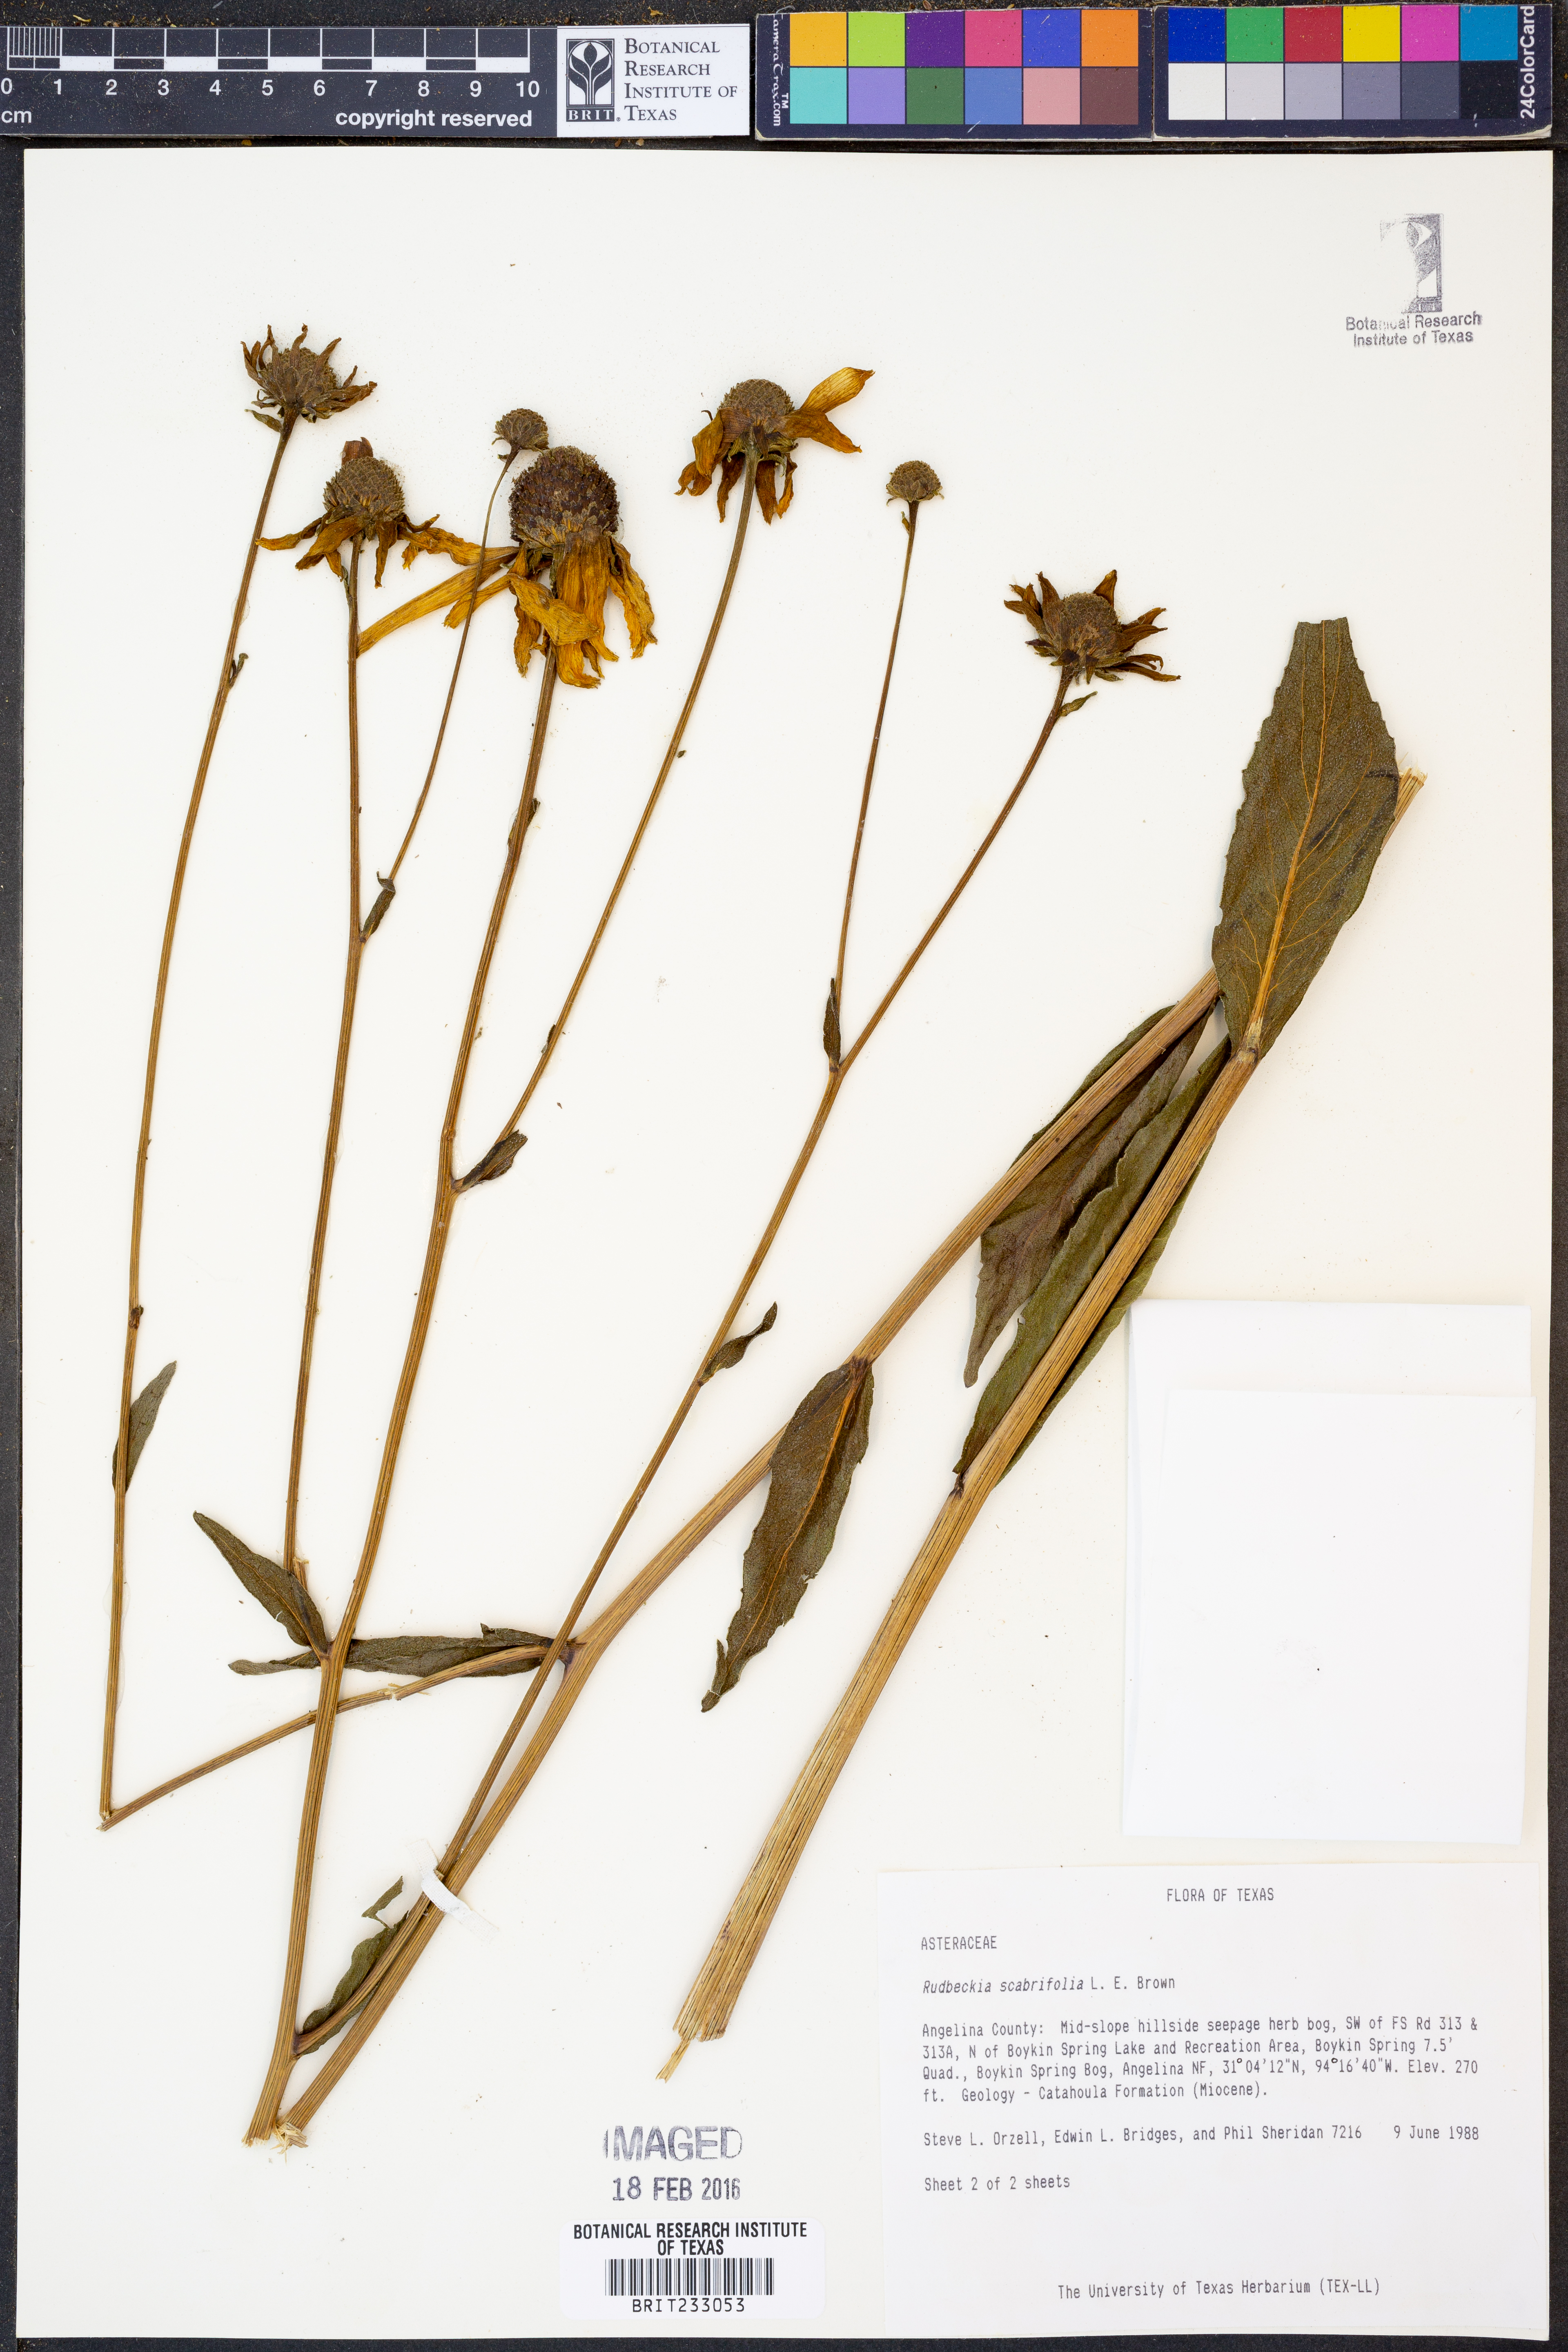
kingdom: Plantae
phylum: Tracheophyta
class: Magnoliopsida
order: Asterales
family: Asteraceae
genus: Rudbeckia
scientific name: Rudbeckia scabrifolia
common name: Rough-leaf coneflower
